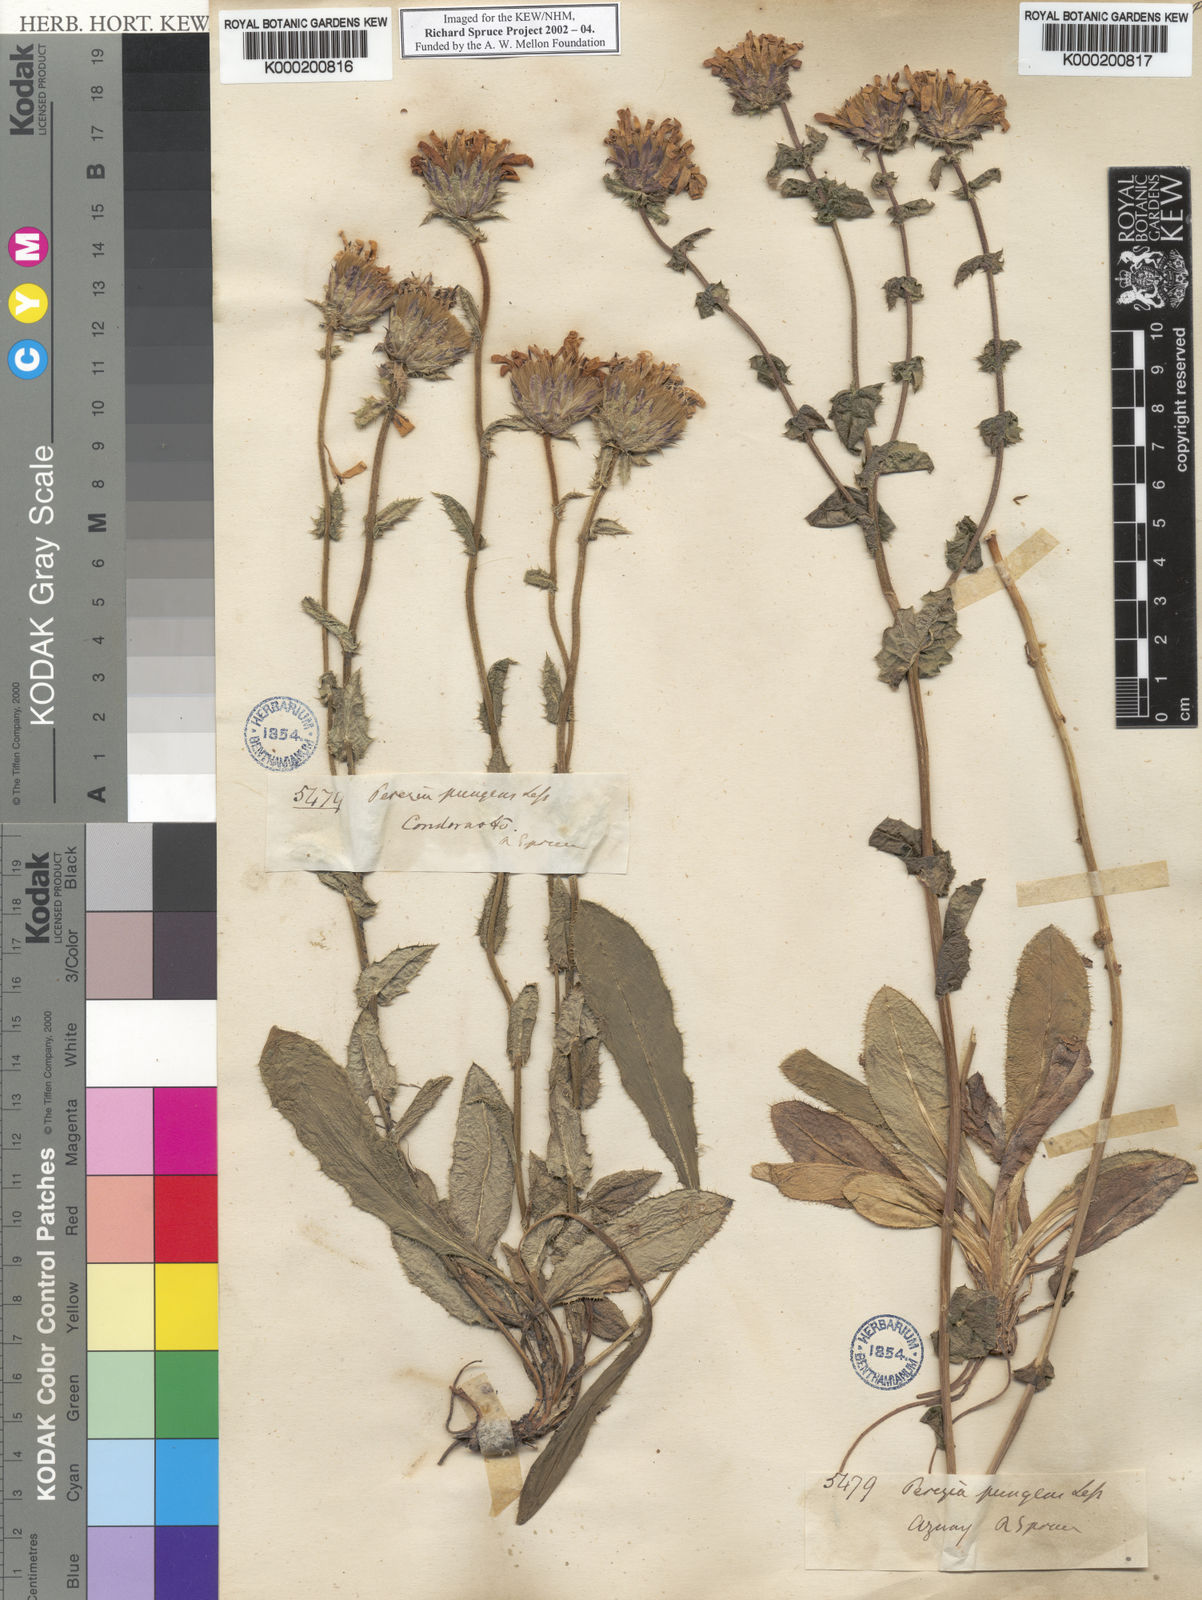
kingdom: Plantae
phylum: Tracheophyta
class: Magnoliopsida
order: Asterales
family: Asteraceae
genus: Perezia
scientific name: Perezia pungens
